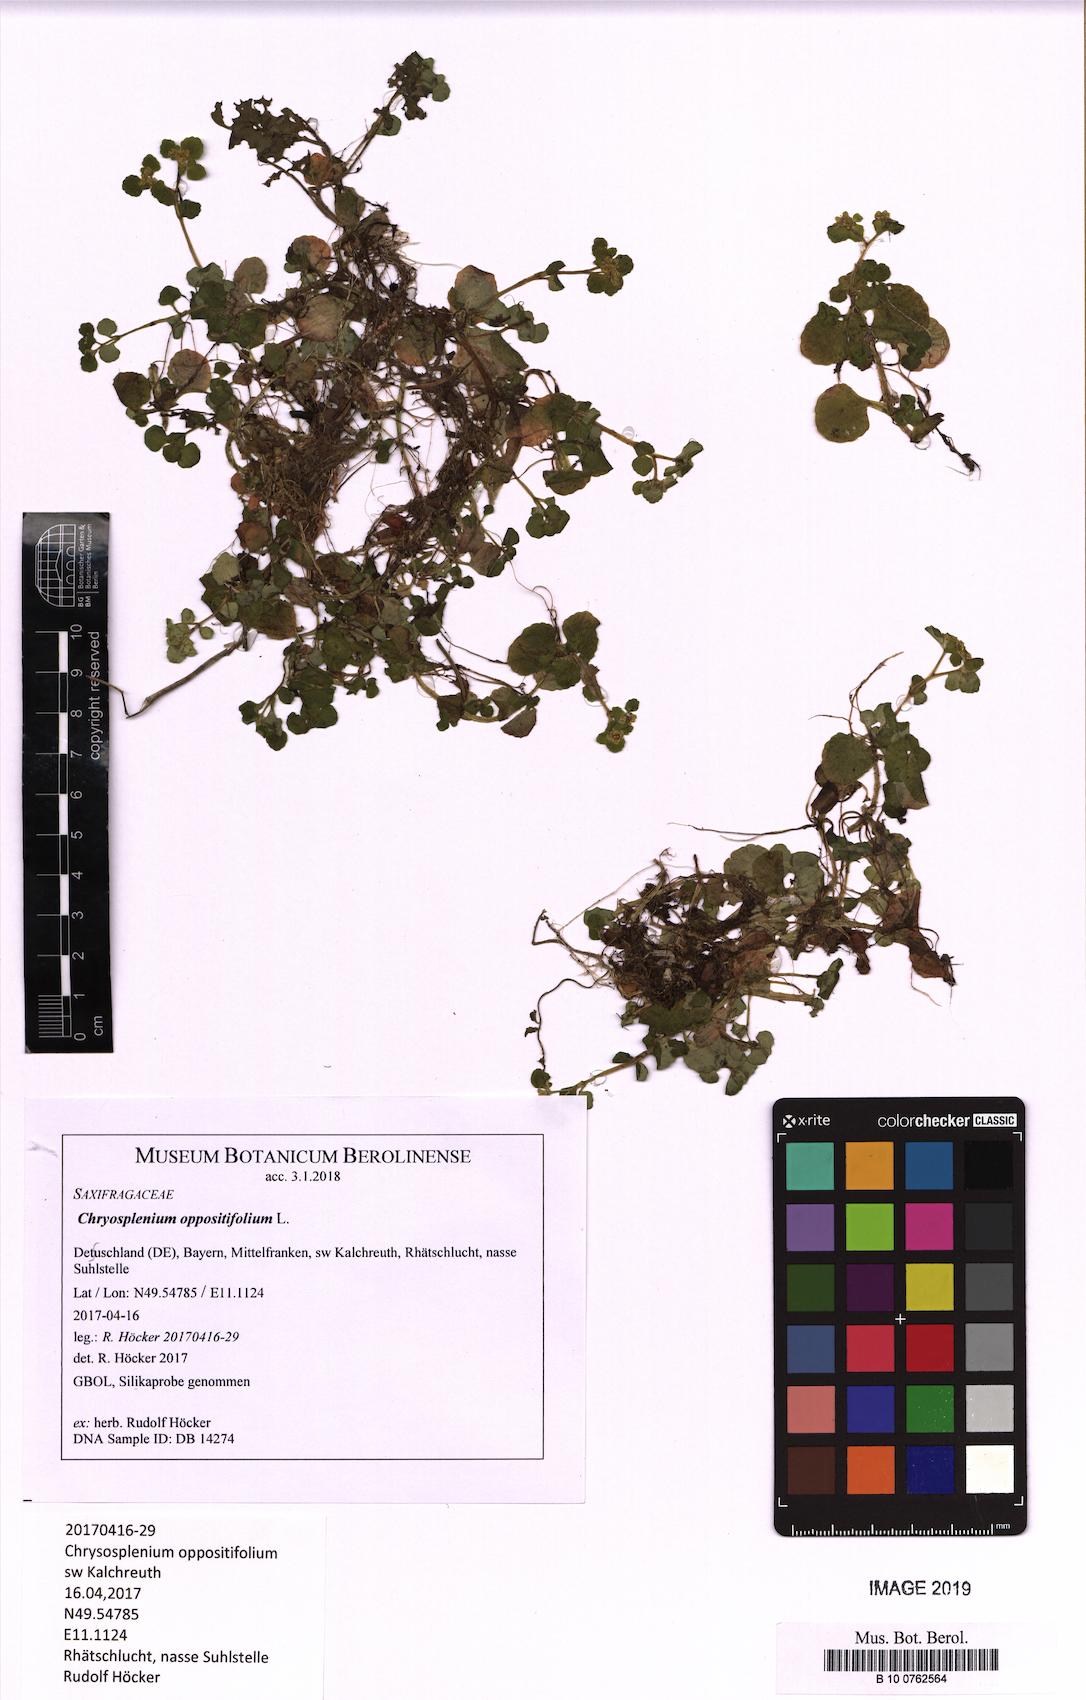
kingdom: Plantae
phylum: Tracheophyta
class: Magnoliopsida
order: Saxifragales
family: Saxifragaceae
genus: Chrysosplenium
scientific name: Chrysosplenium oppositifolium
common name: Opposite-leaved golden-saxifrage
